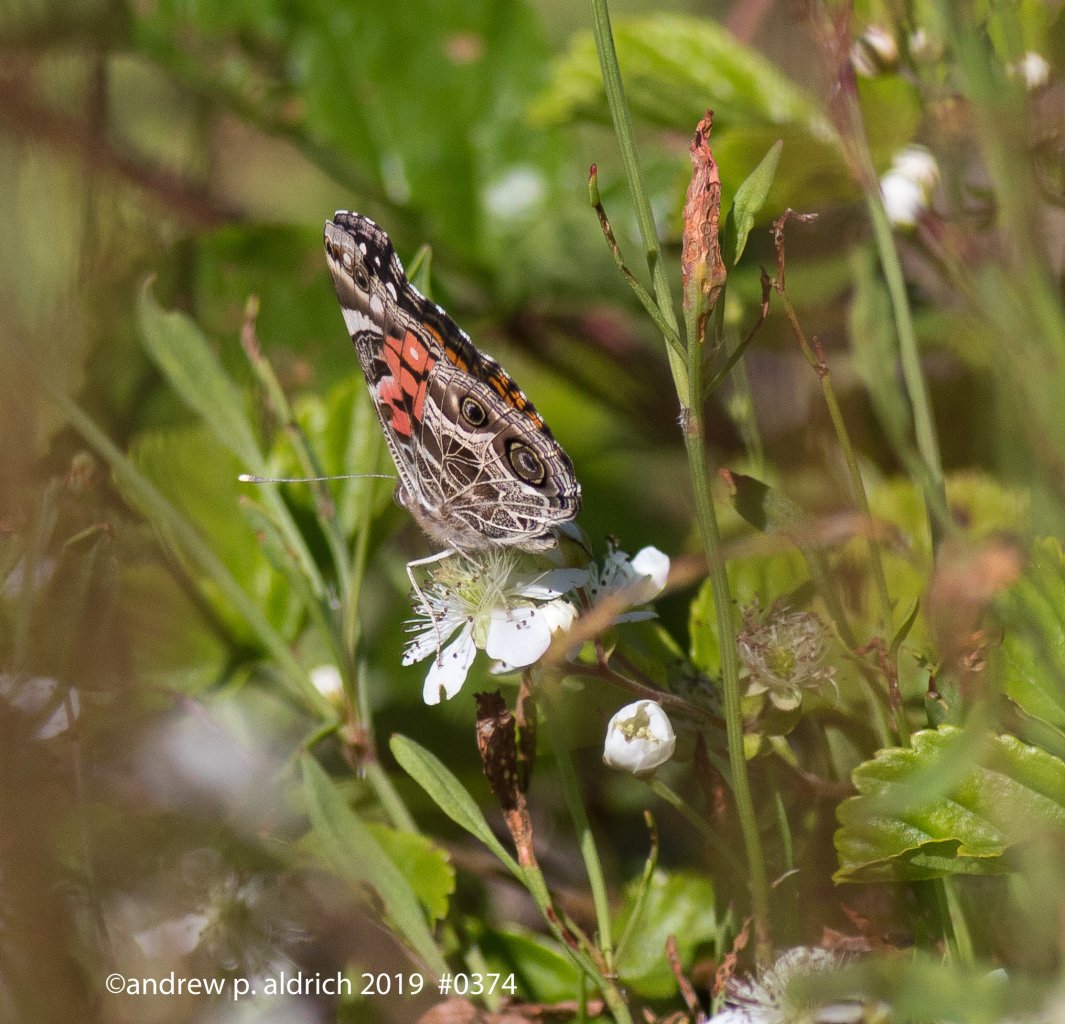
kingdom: Animalia
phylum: Arthropoda
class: Insecta
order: Lepidoptera
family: Nymphalidae
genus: Vanessa
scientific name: Vanessa virginiensis
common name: American Lady
